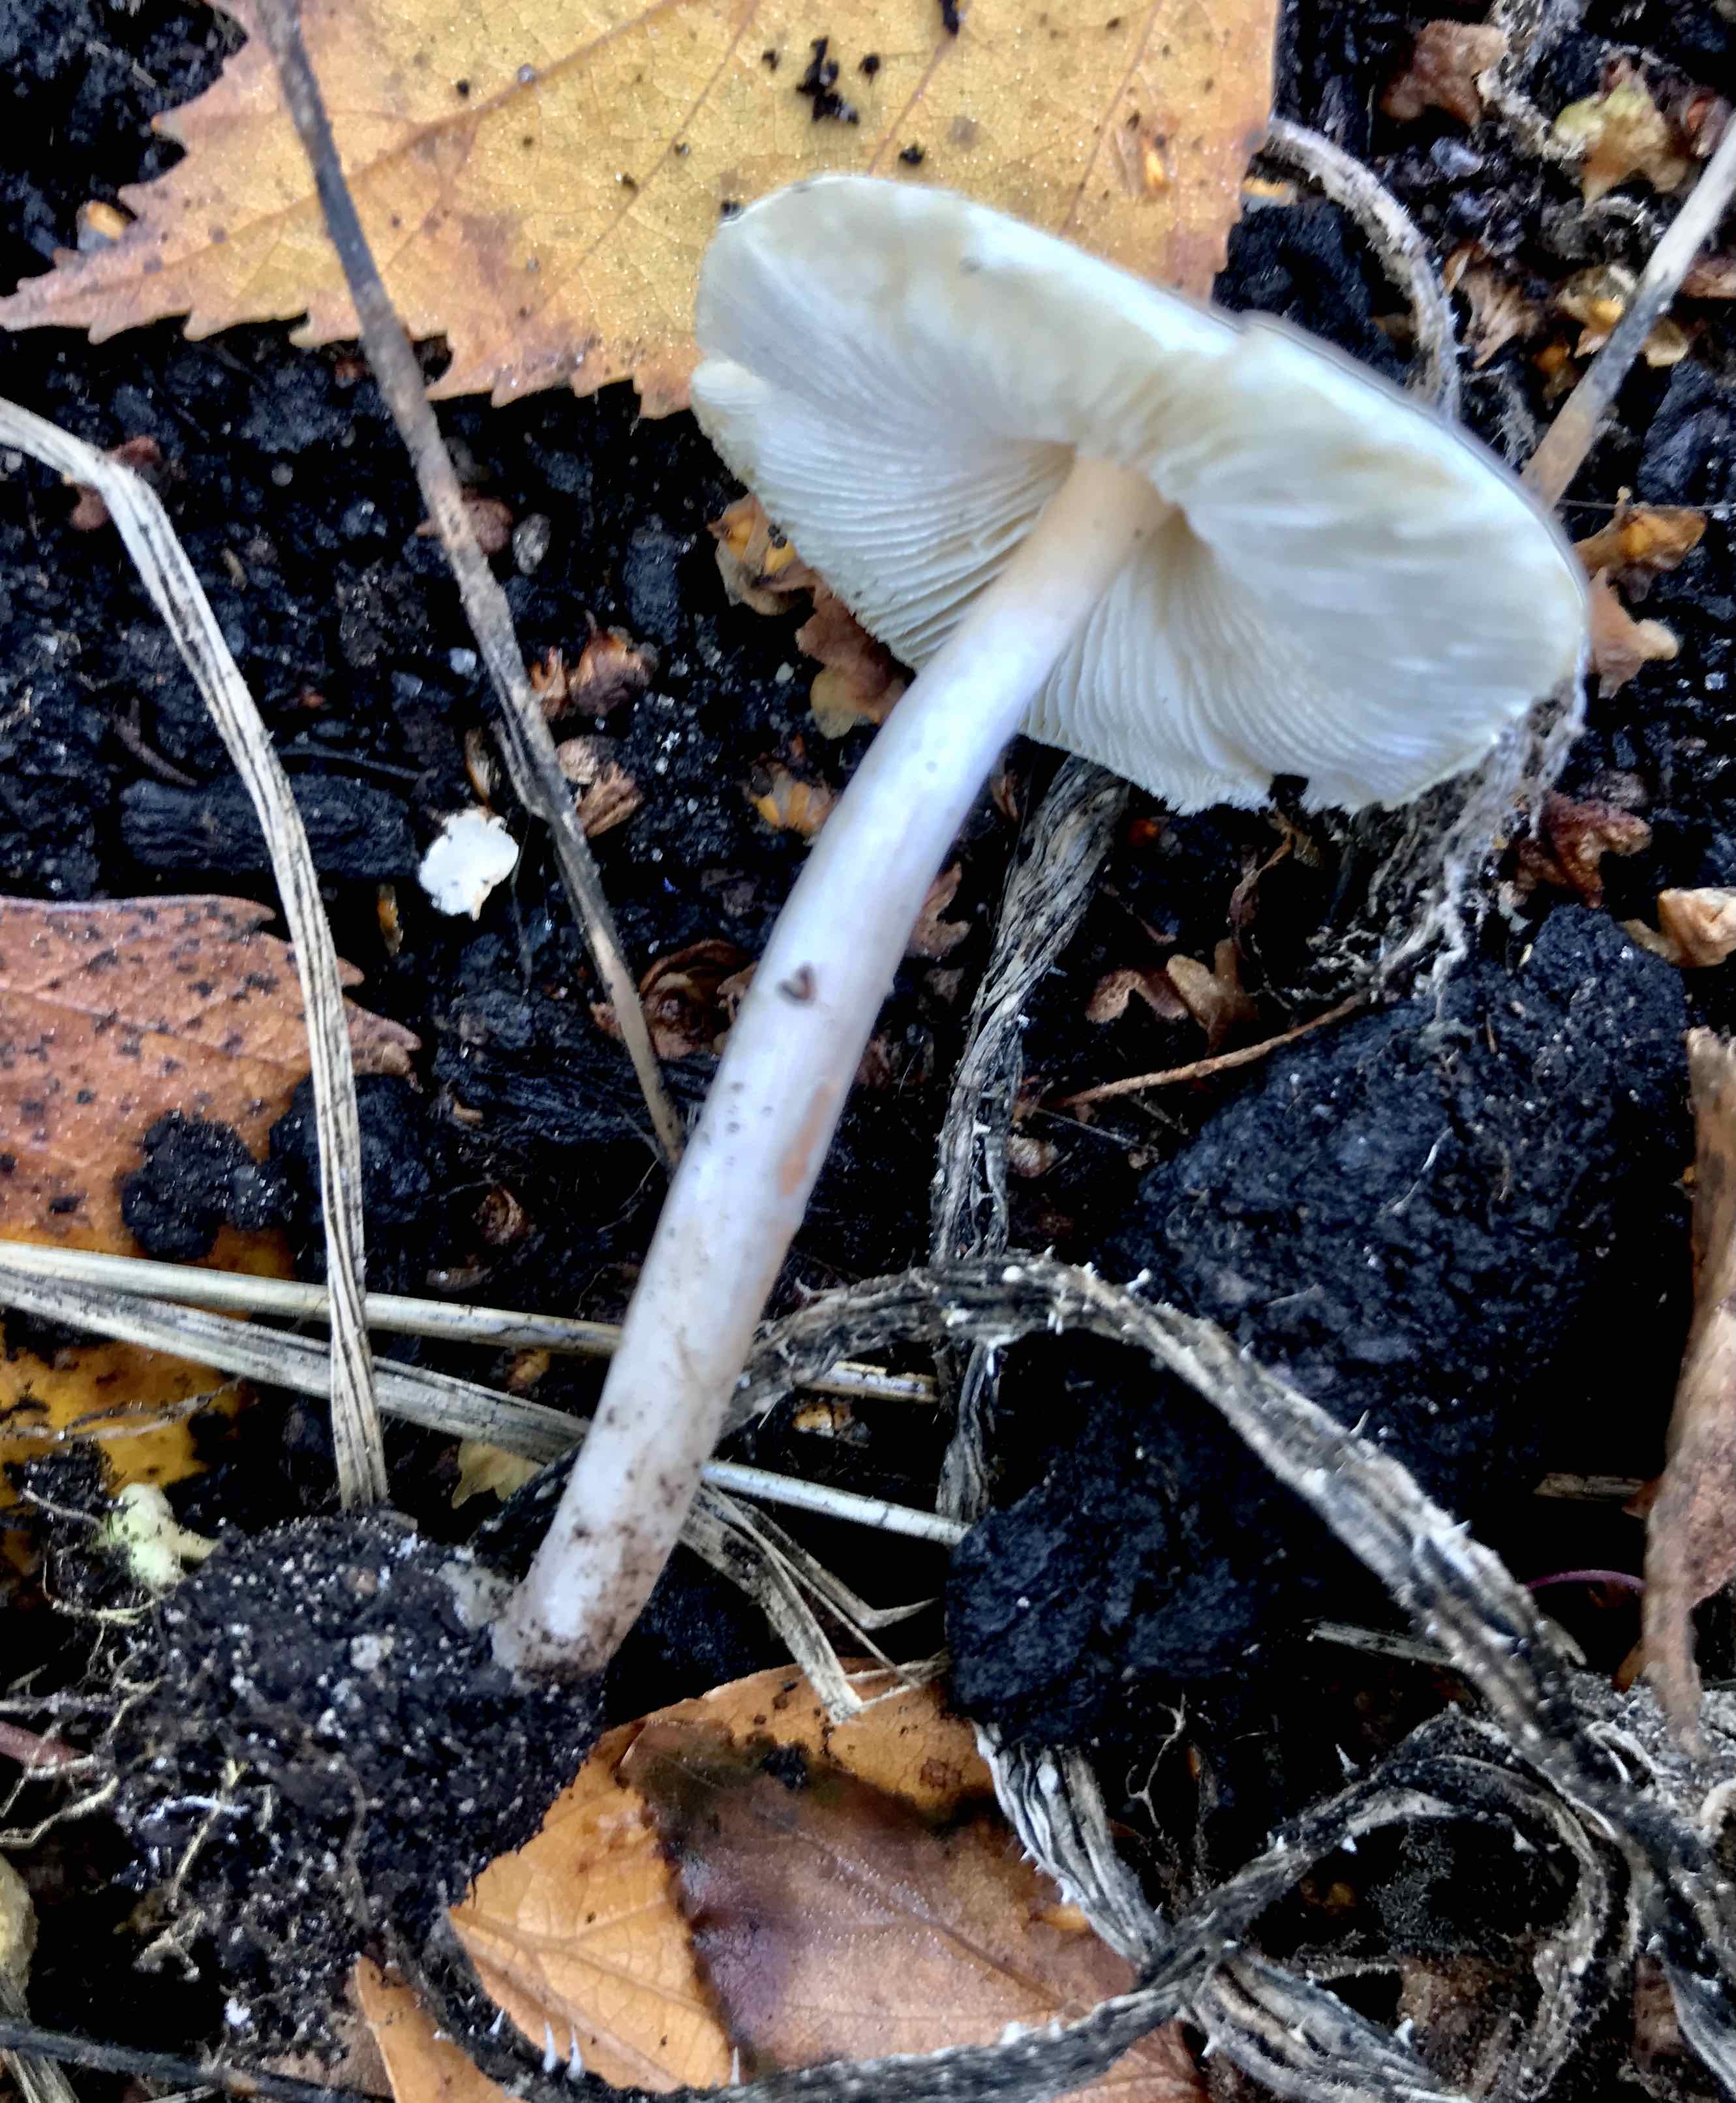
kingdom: Fungi
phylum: Basidiomycota
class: Agaricomycetes
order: Agaricales
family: Agaricaceae
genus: Lepiota
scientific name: Lepiota cristata
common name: stinkende parasolhat
